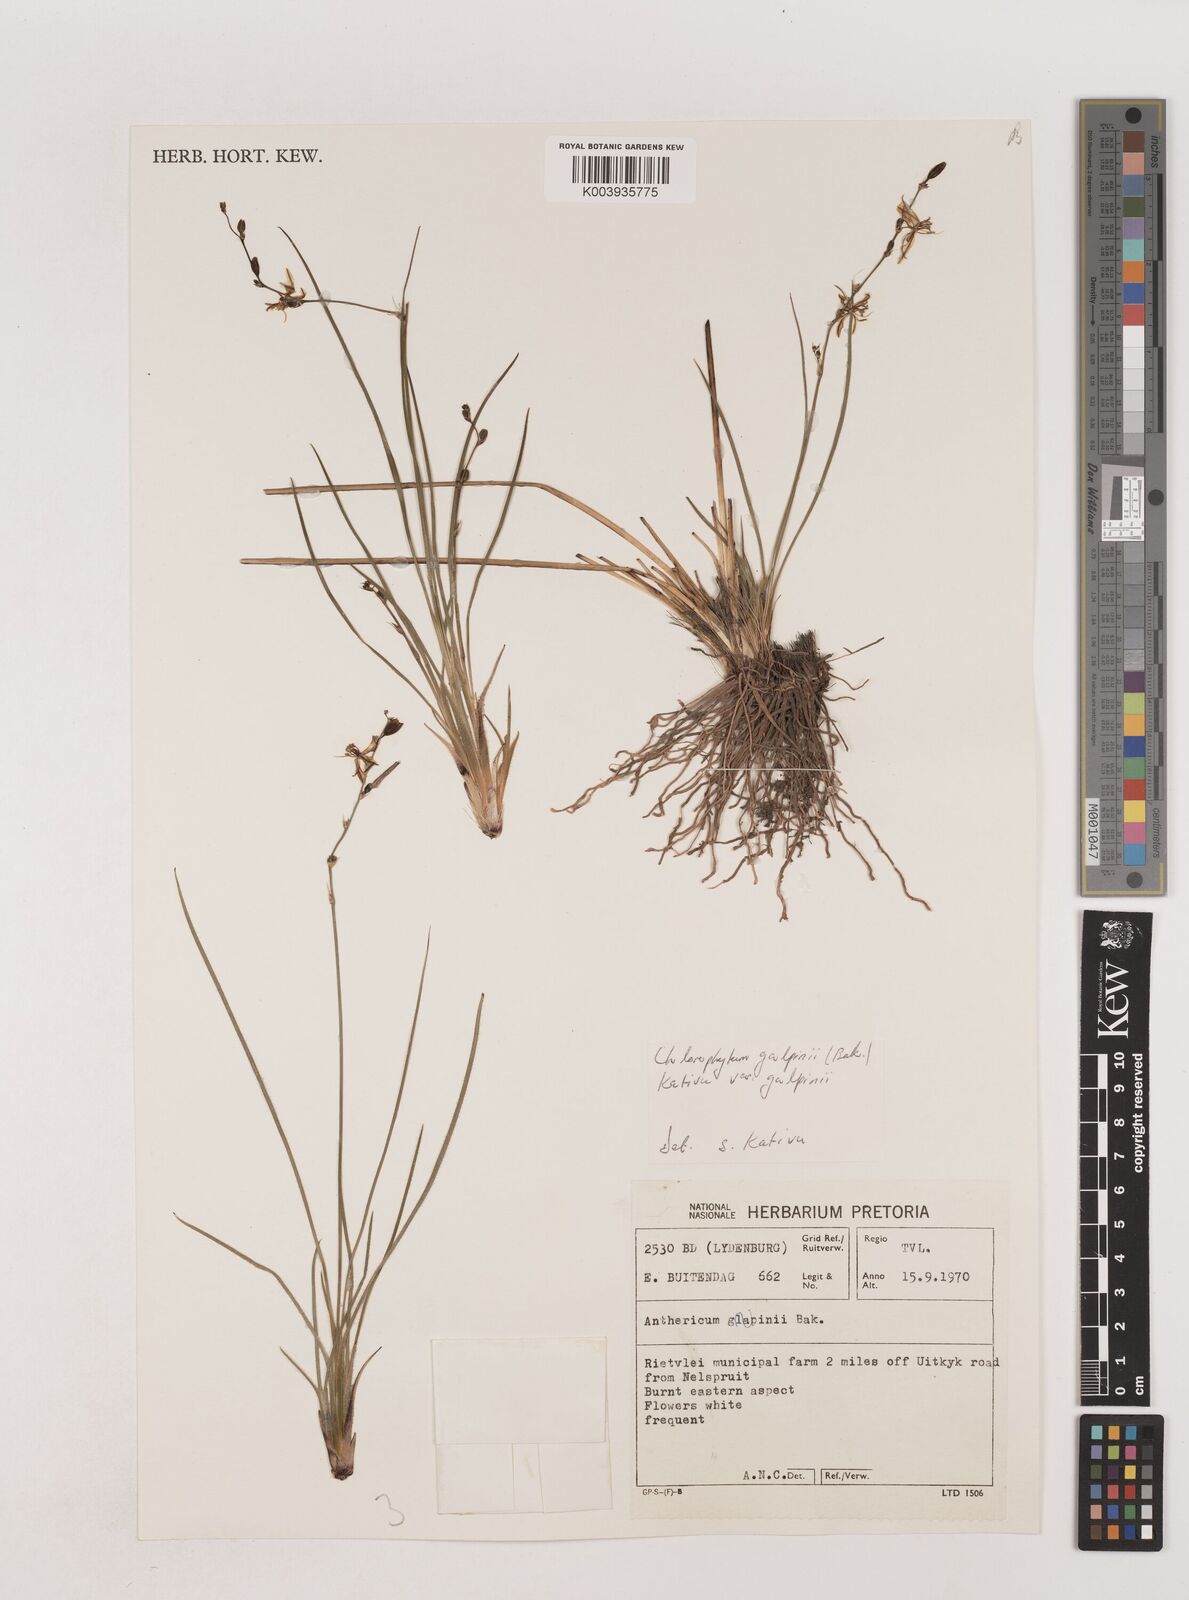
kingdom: Plantae
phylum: Tracheophyta
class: Liliopsida
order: Asparagales
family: Asparagaceae
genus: Chlorophytum
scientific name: Chlorophytum galpinii
